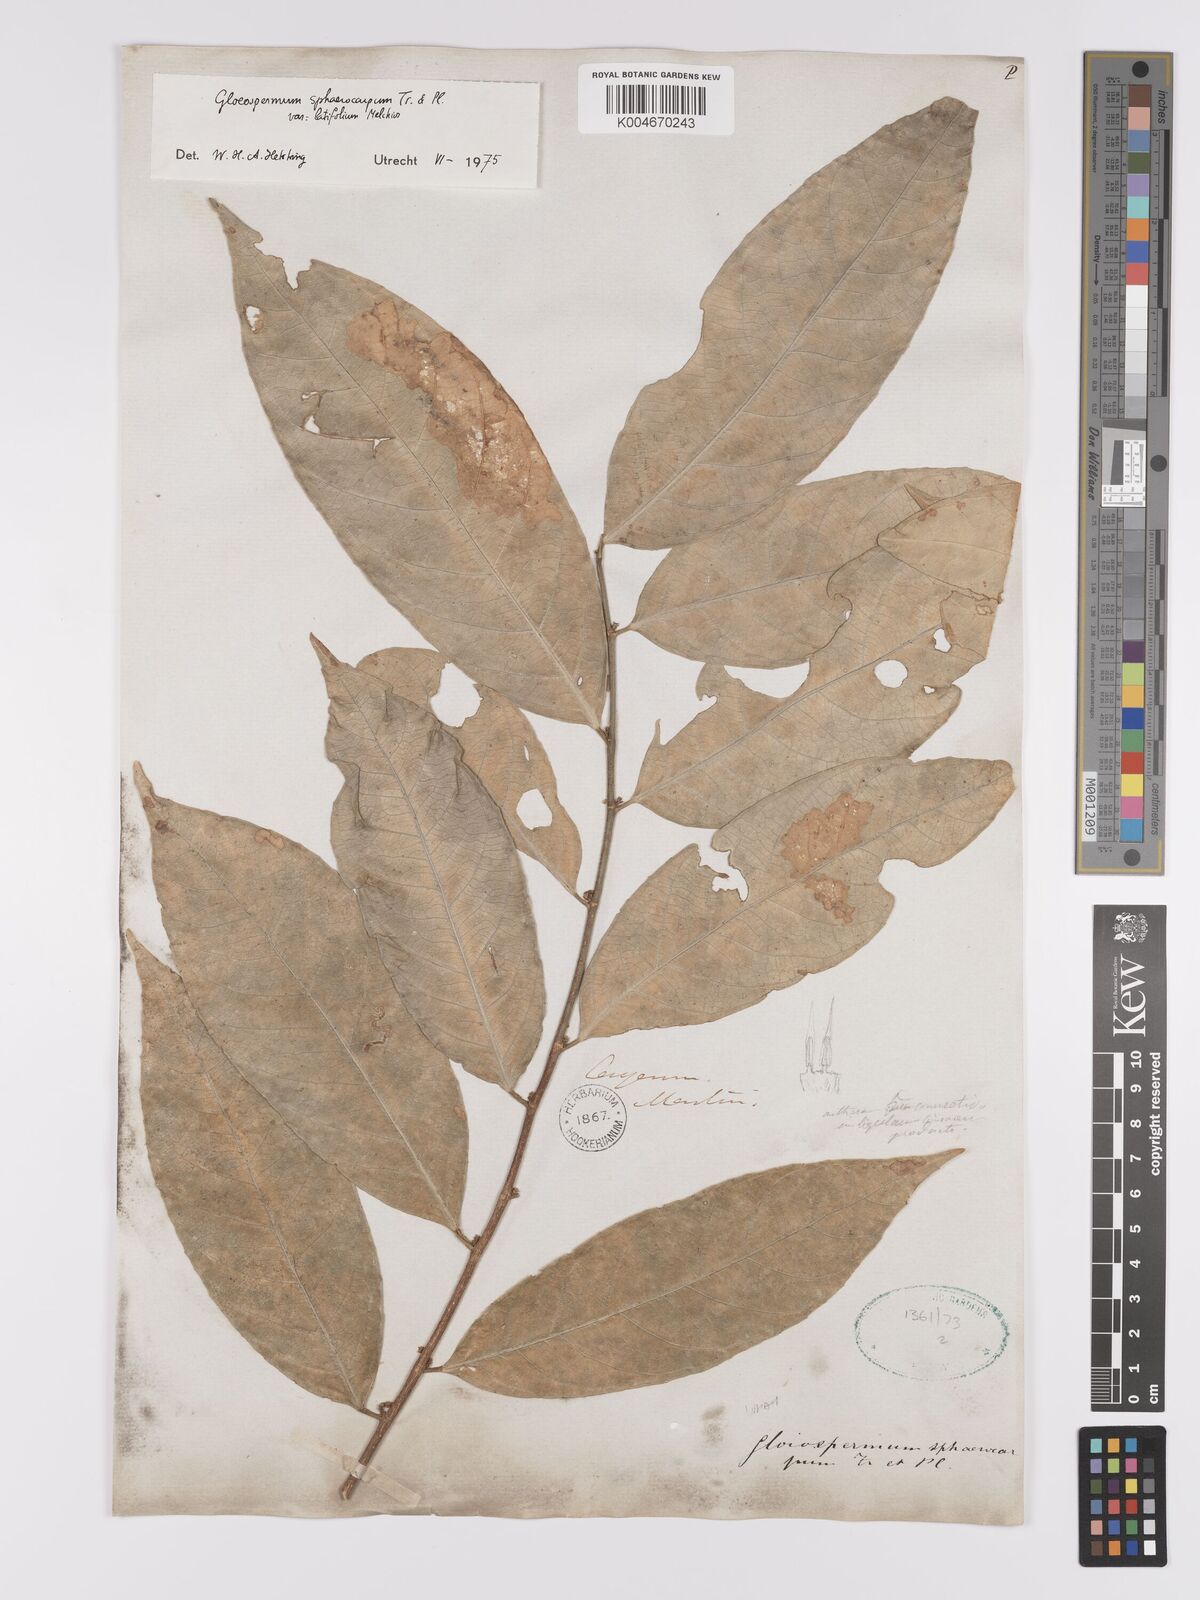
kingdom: Plantae
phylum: Tracheophyta
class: Magnoliopsida
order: Malpighiales
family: Violaceae
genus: Gloeospermum
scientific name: Gloeospermum sphaerocarpum
